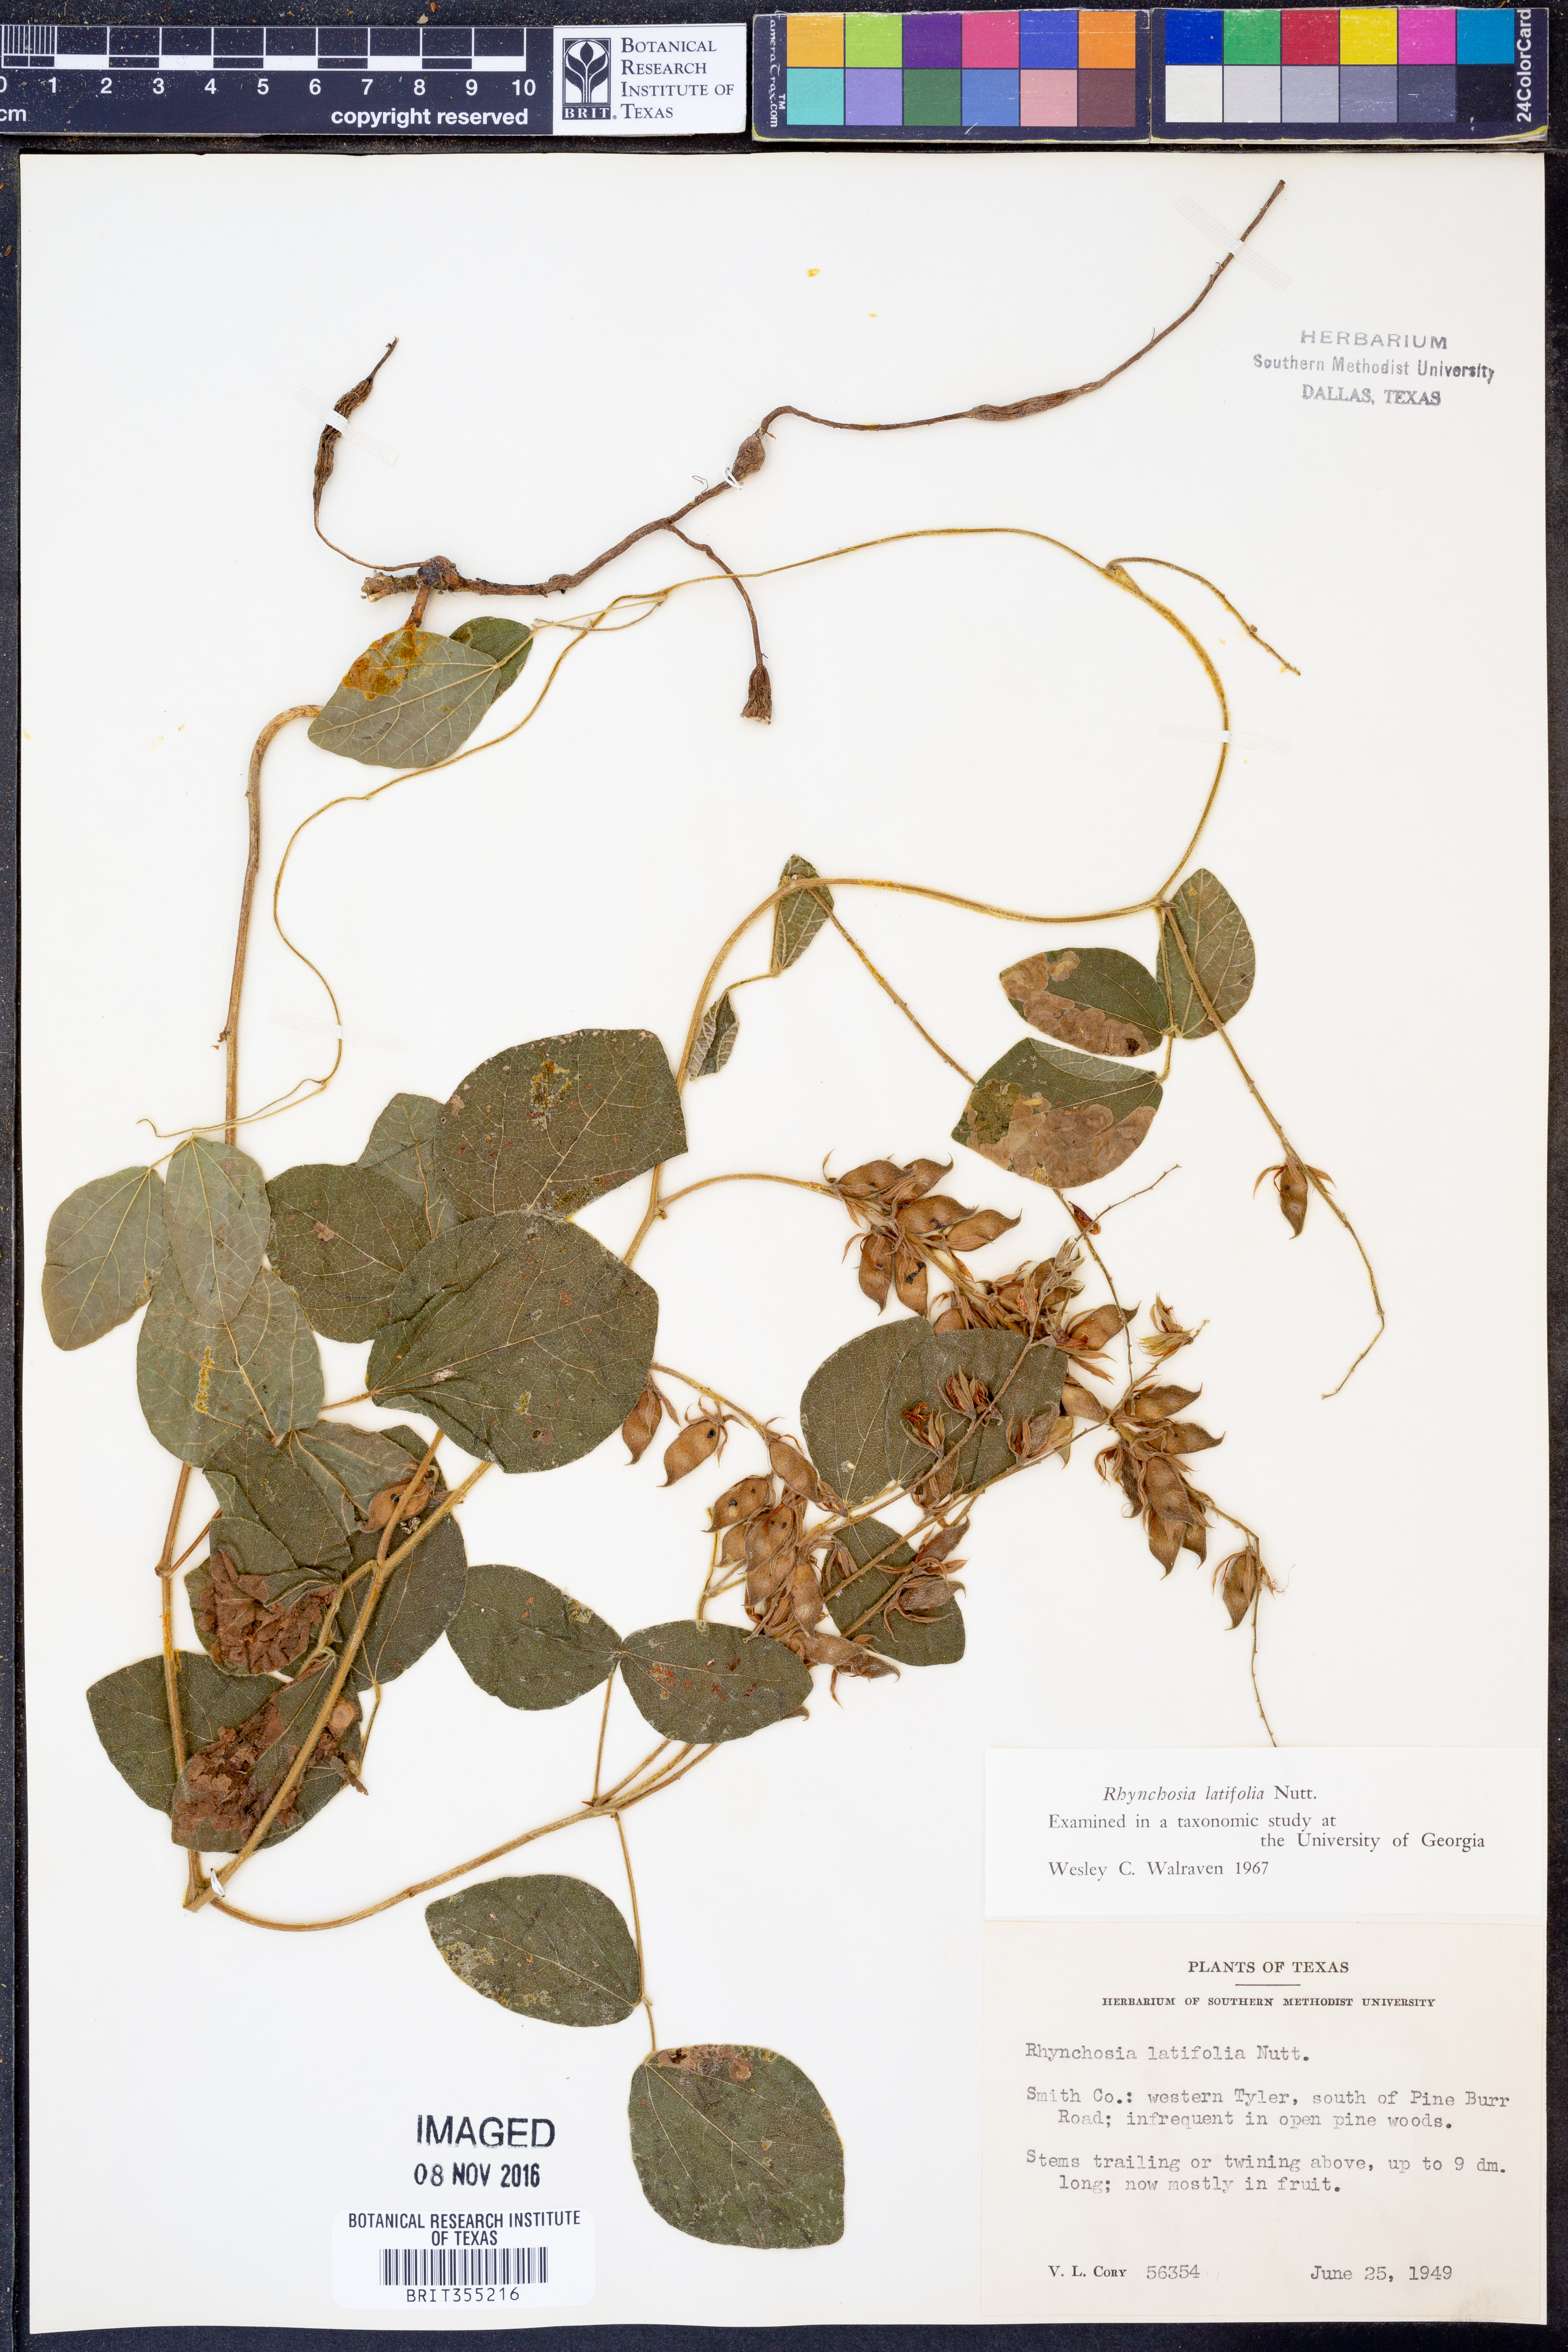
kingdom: Plantae
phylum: Tracheophyta
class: Magnoliopsida
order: Fabales
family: Fabaceae
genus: Rhynchosia
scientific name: Rhynchosia latifolia
